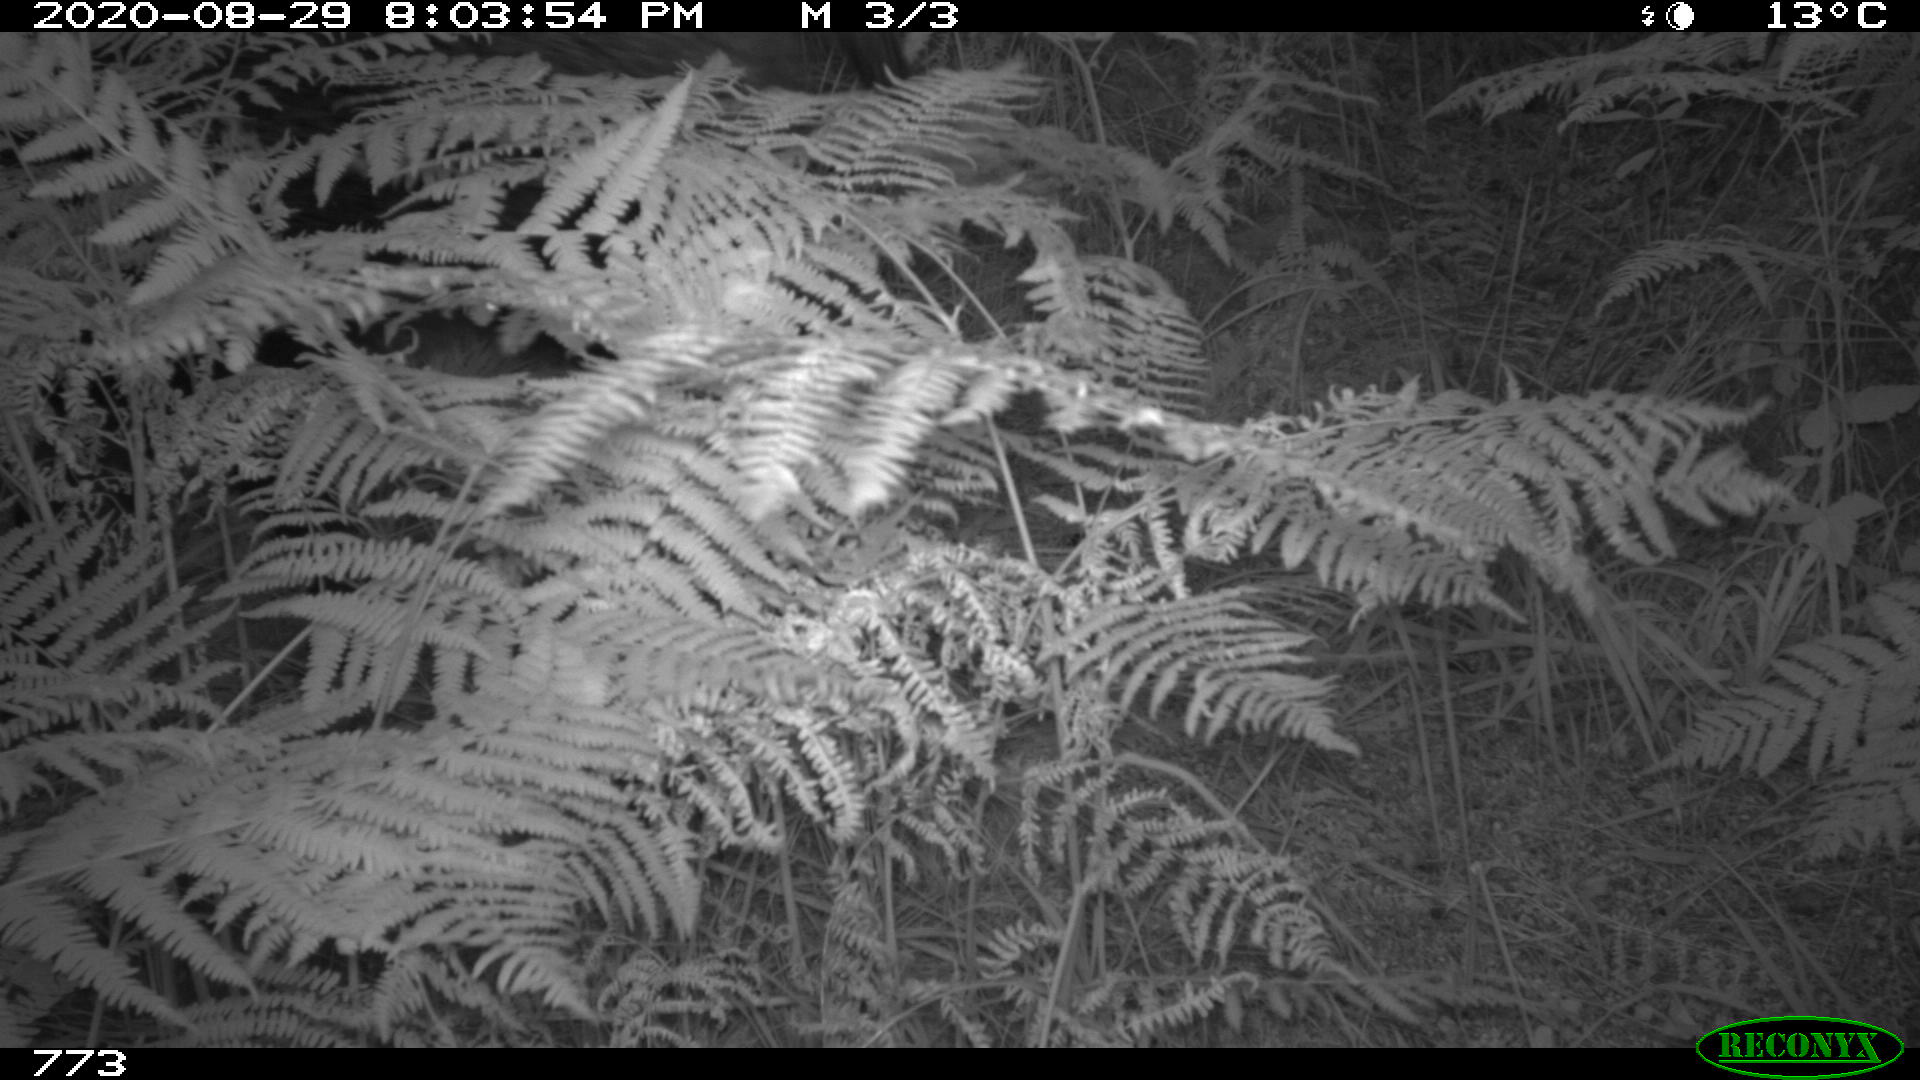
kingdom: Animalia
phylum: Chordata
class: Mammalia
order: Artiodactyla
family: Suidae
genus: Sus
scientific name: Sus scrofa
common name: Wild boar
